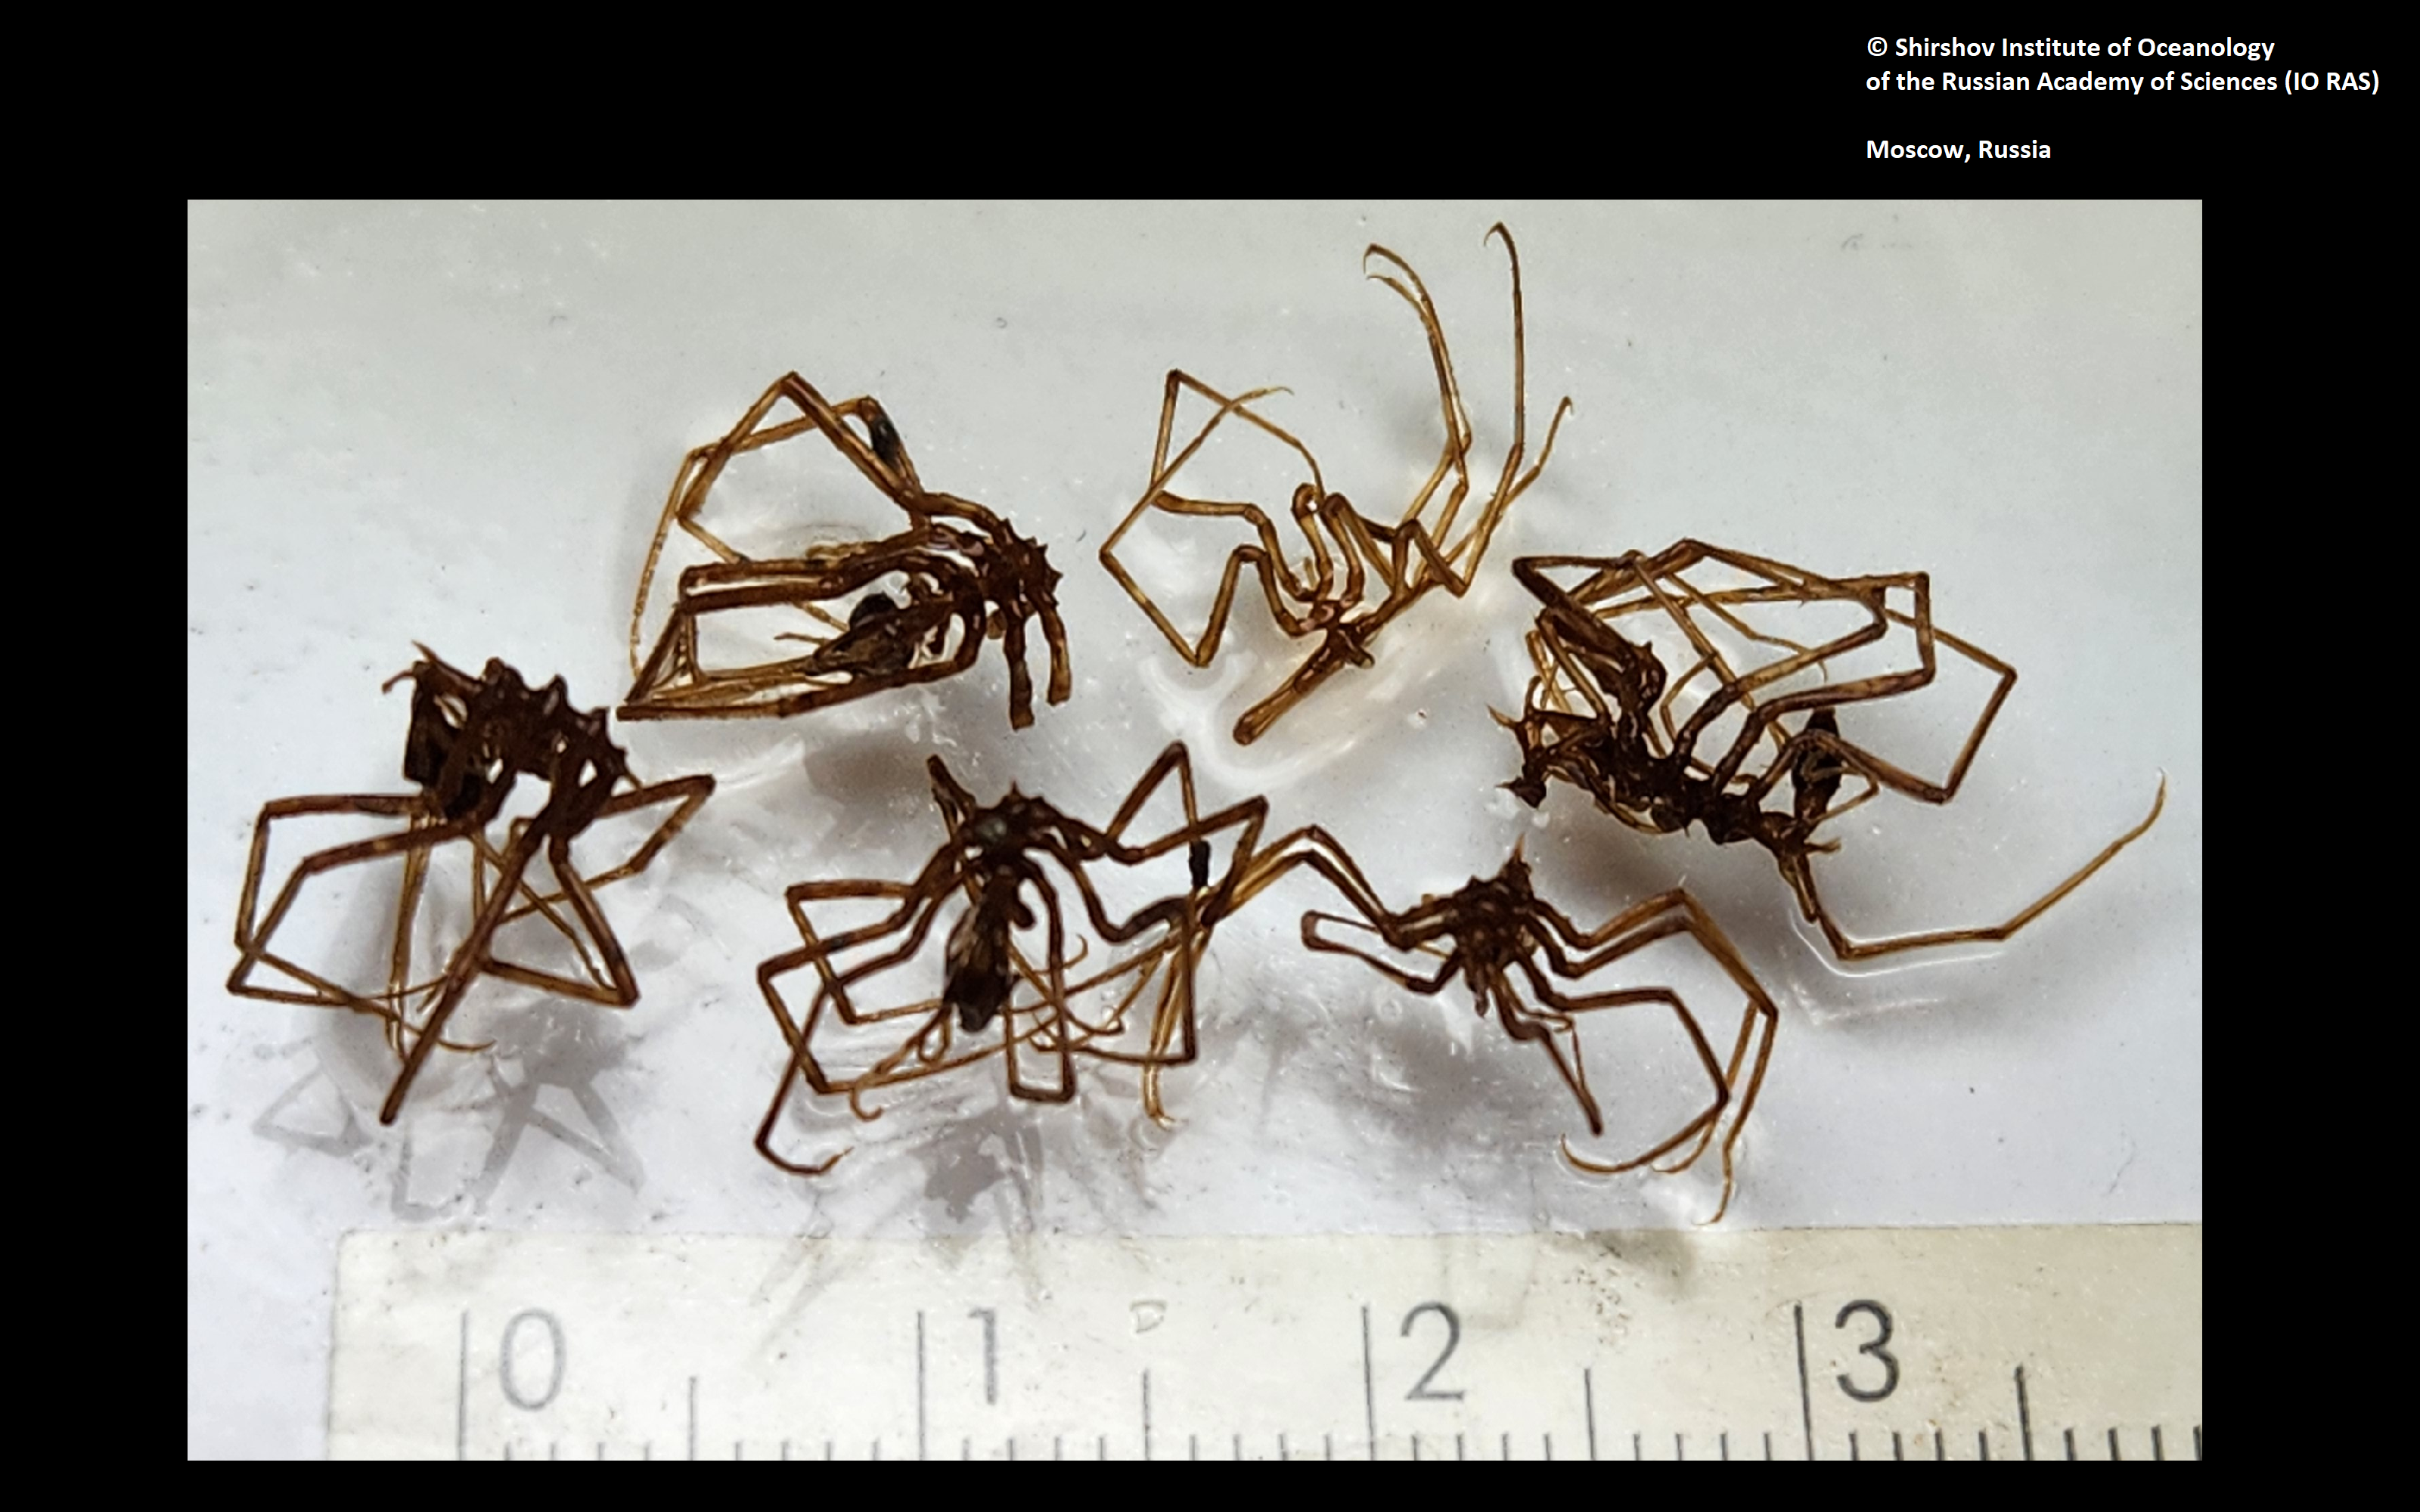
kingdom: Animalia
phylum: Arthropoda
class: Pycnogonida
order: Pantopoda
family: Ascorhynchidae
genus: Ascorhynchus
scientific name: Ascorhynchus losinalosinskii
